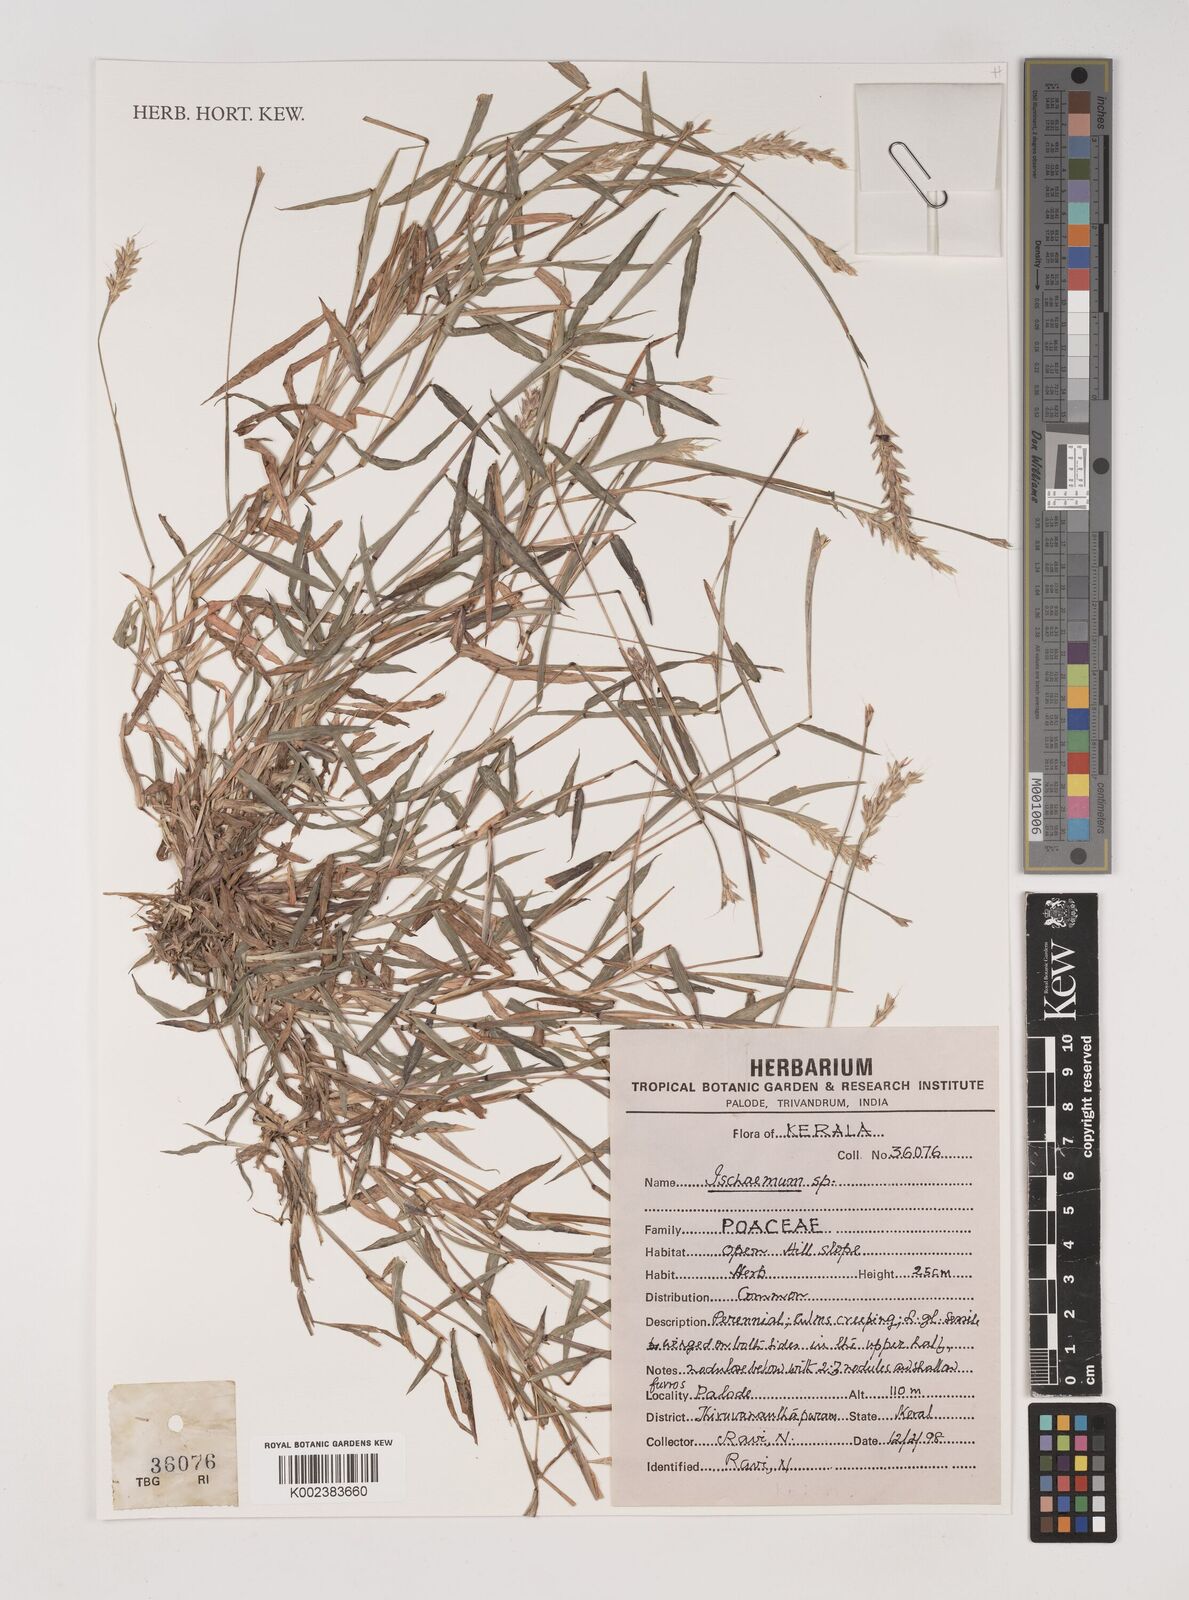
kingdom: Plantae
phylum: Tracheophyta
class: Liliopsida
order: Poales
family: Poaceae
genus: Ischaemum
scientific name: Ischaemum
